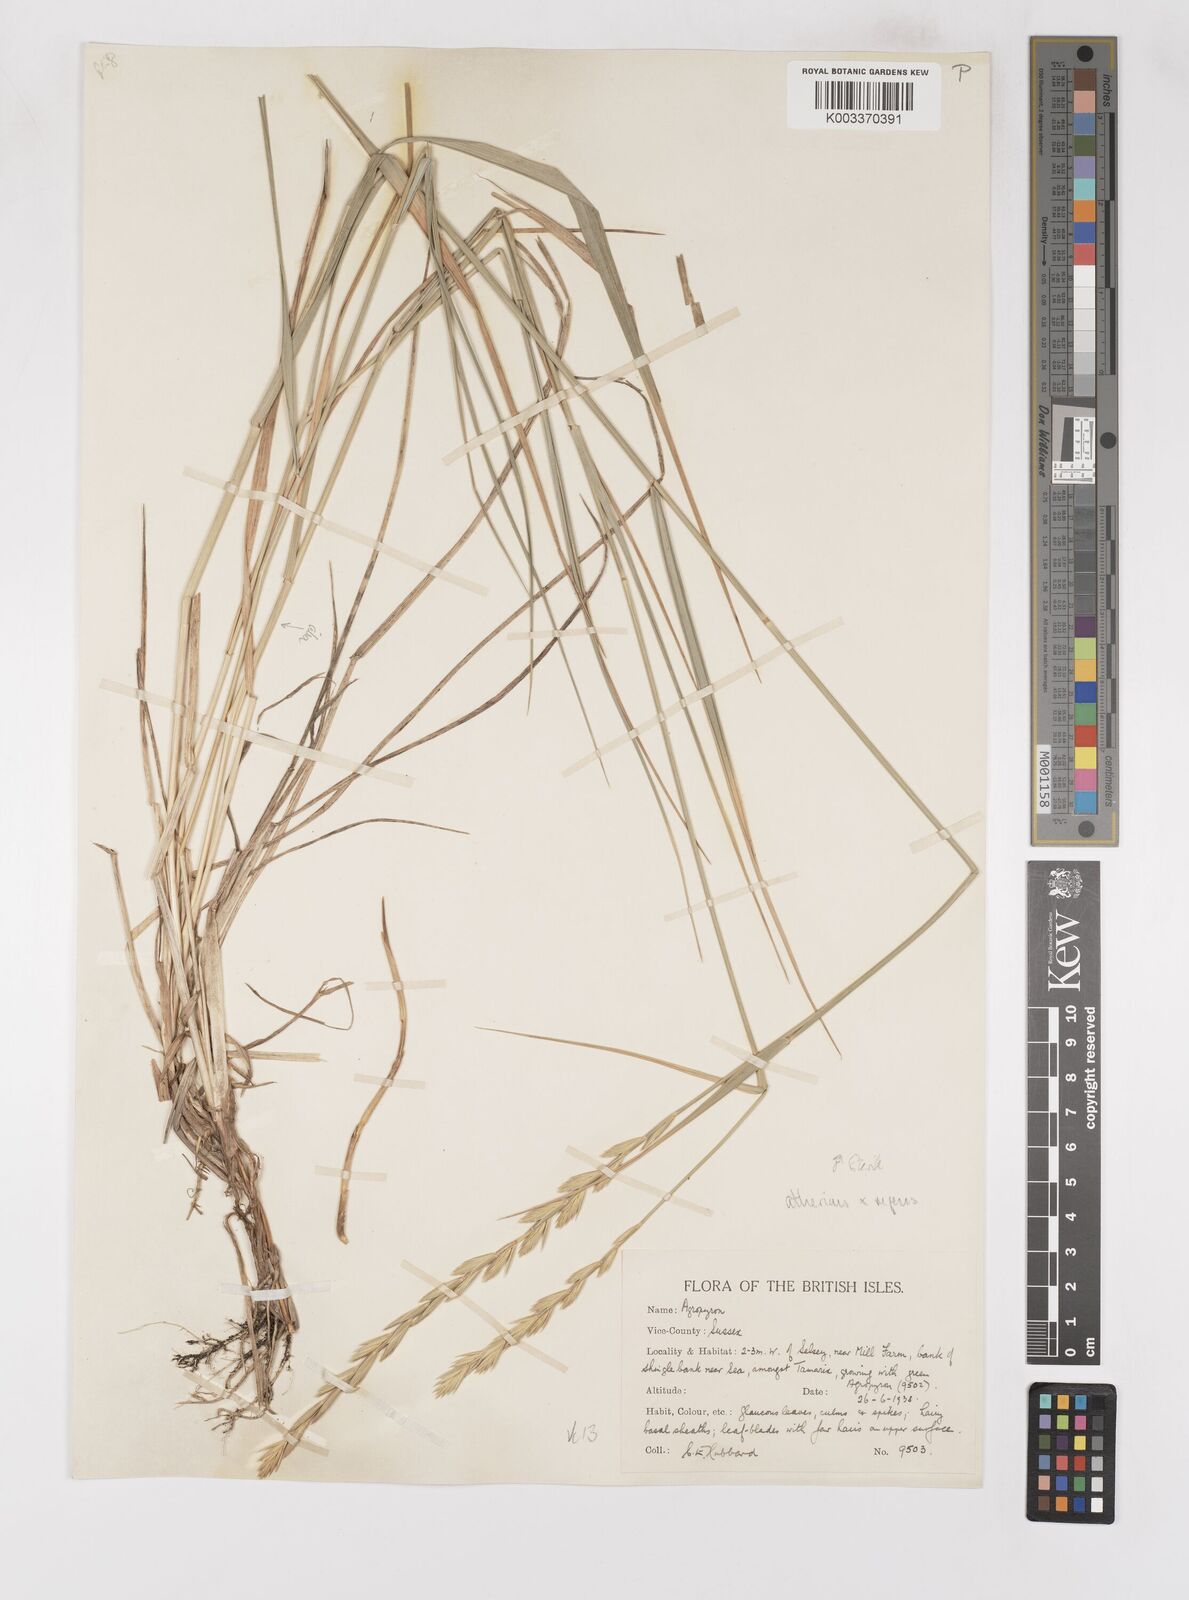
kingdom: Plantae
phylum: Tracheophyta
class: Liliopsida
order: Poales
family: Poaceae
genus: Elymus
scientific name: Elymus oliveri
